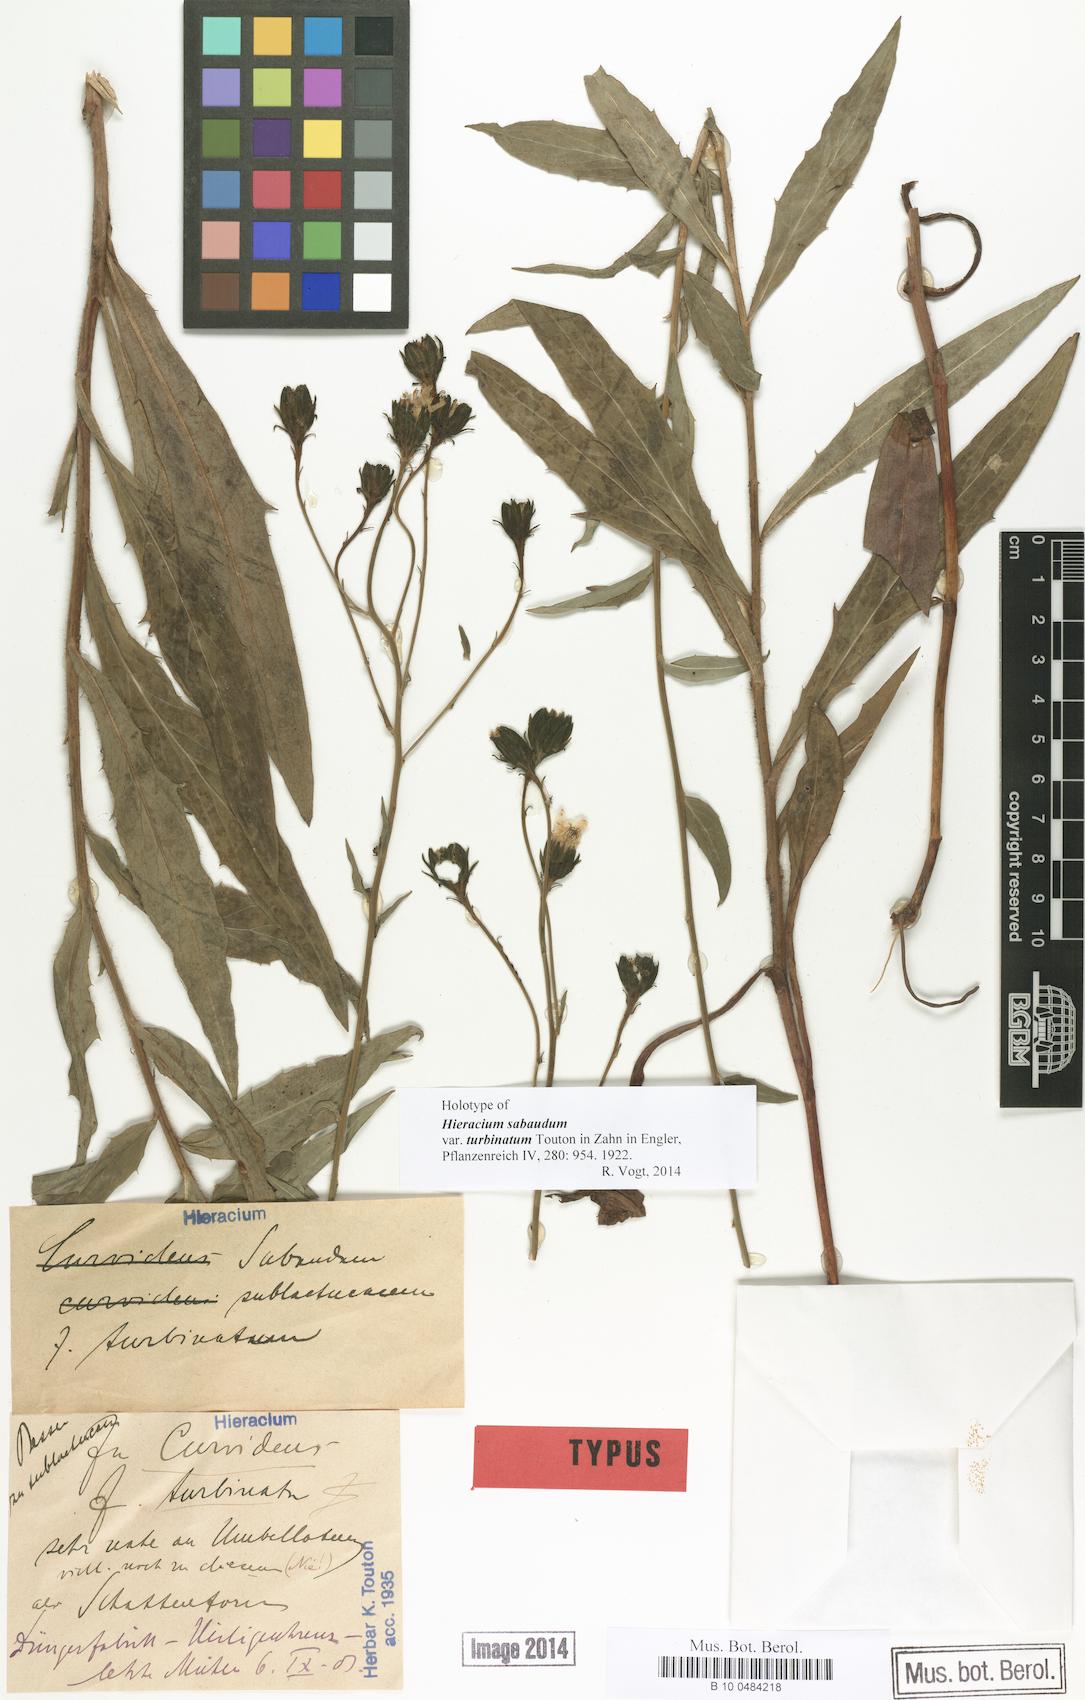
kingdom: Plantae
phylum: Tracheophyta
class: Magnoliopsida
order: Asterales
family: Asteraceae
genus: Hieracium
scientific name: Hieracium sabaudum
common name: New england hawkweed
